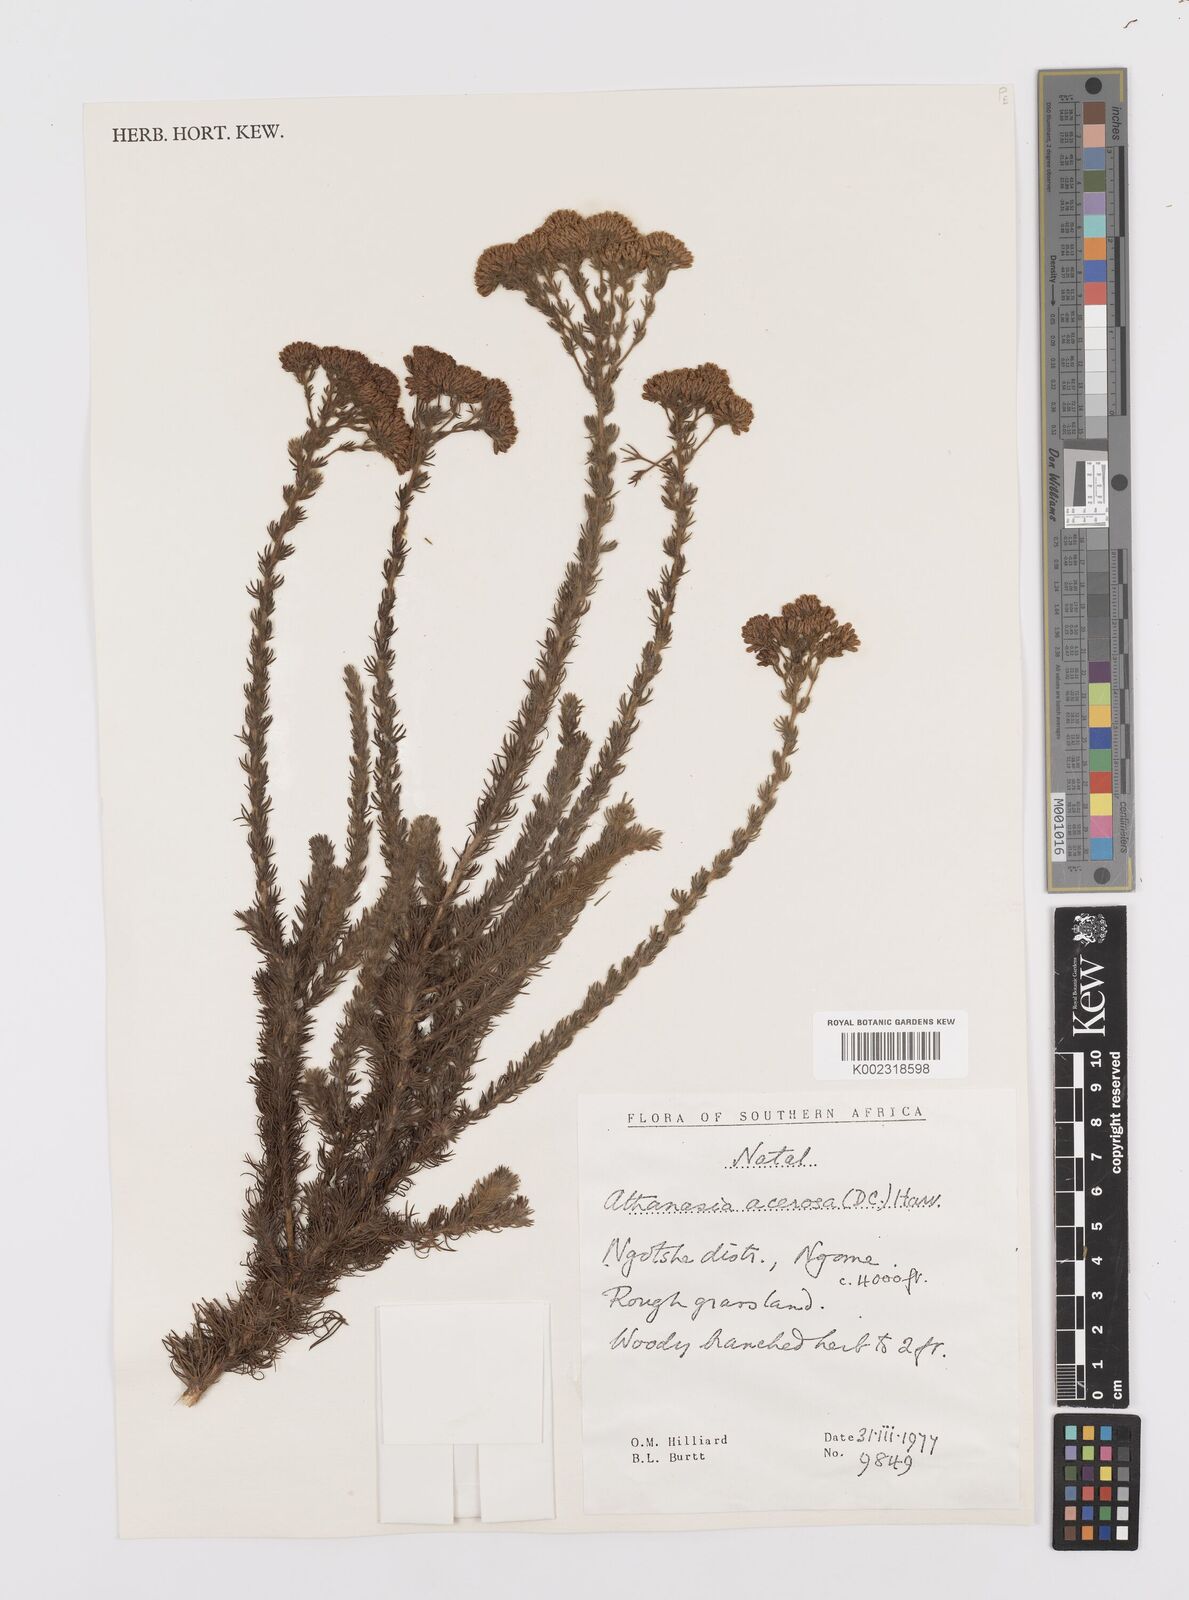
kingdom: Plantae
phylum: Tracheophyta
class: Magnoliopsida
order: Asterales
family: Asteraceae
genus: Phymaspermum
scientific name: Phymaspermum acerosum
